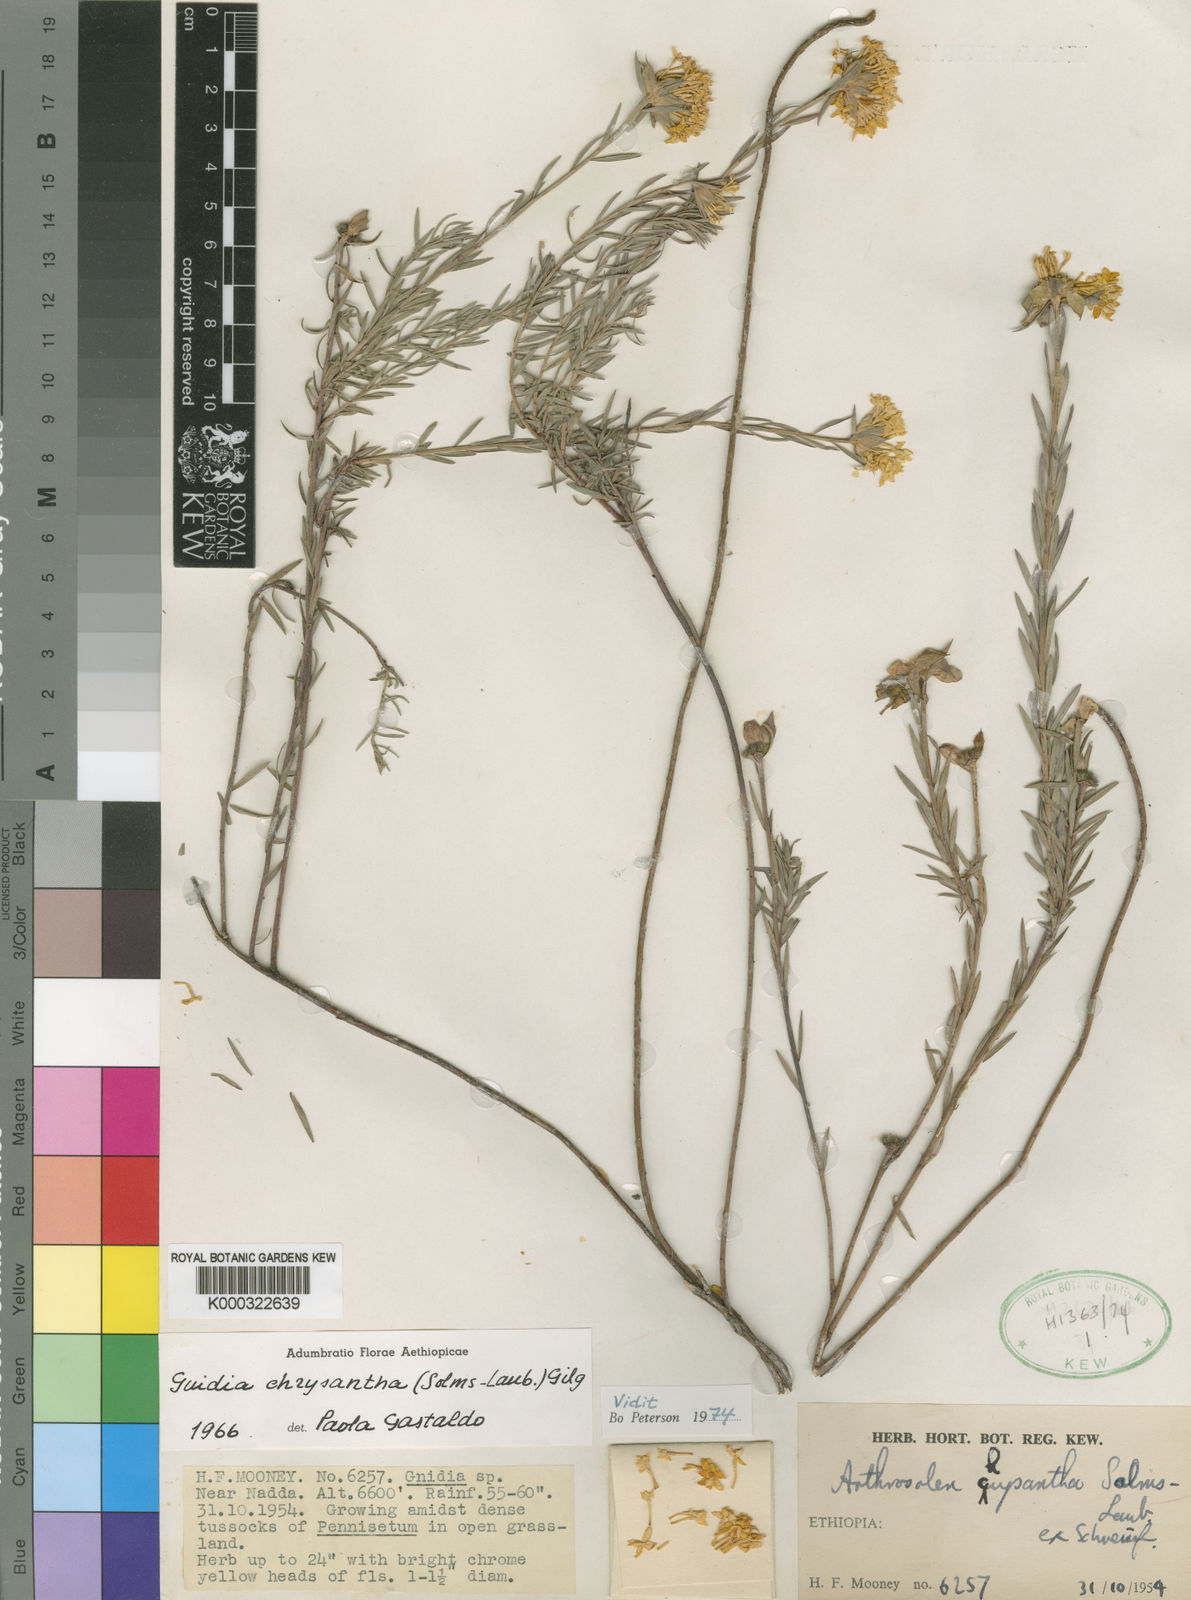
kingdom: Plantae
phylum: Tracheophyta
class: Magnoliopsida
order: Malvales
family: Thymelaeaceae
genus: Gnidia
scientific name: Gnidia chrysantha
